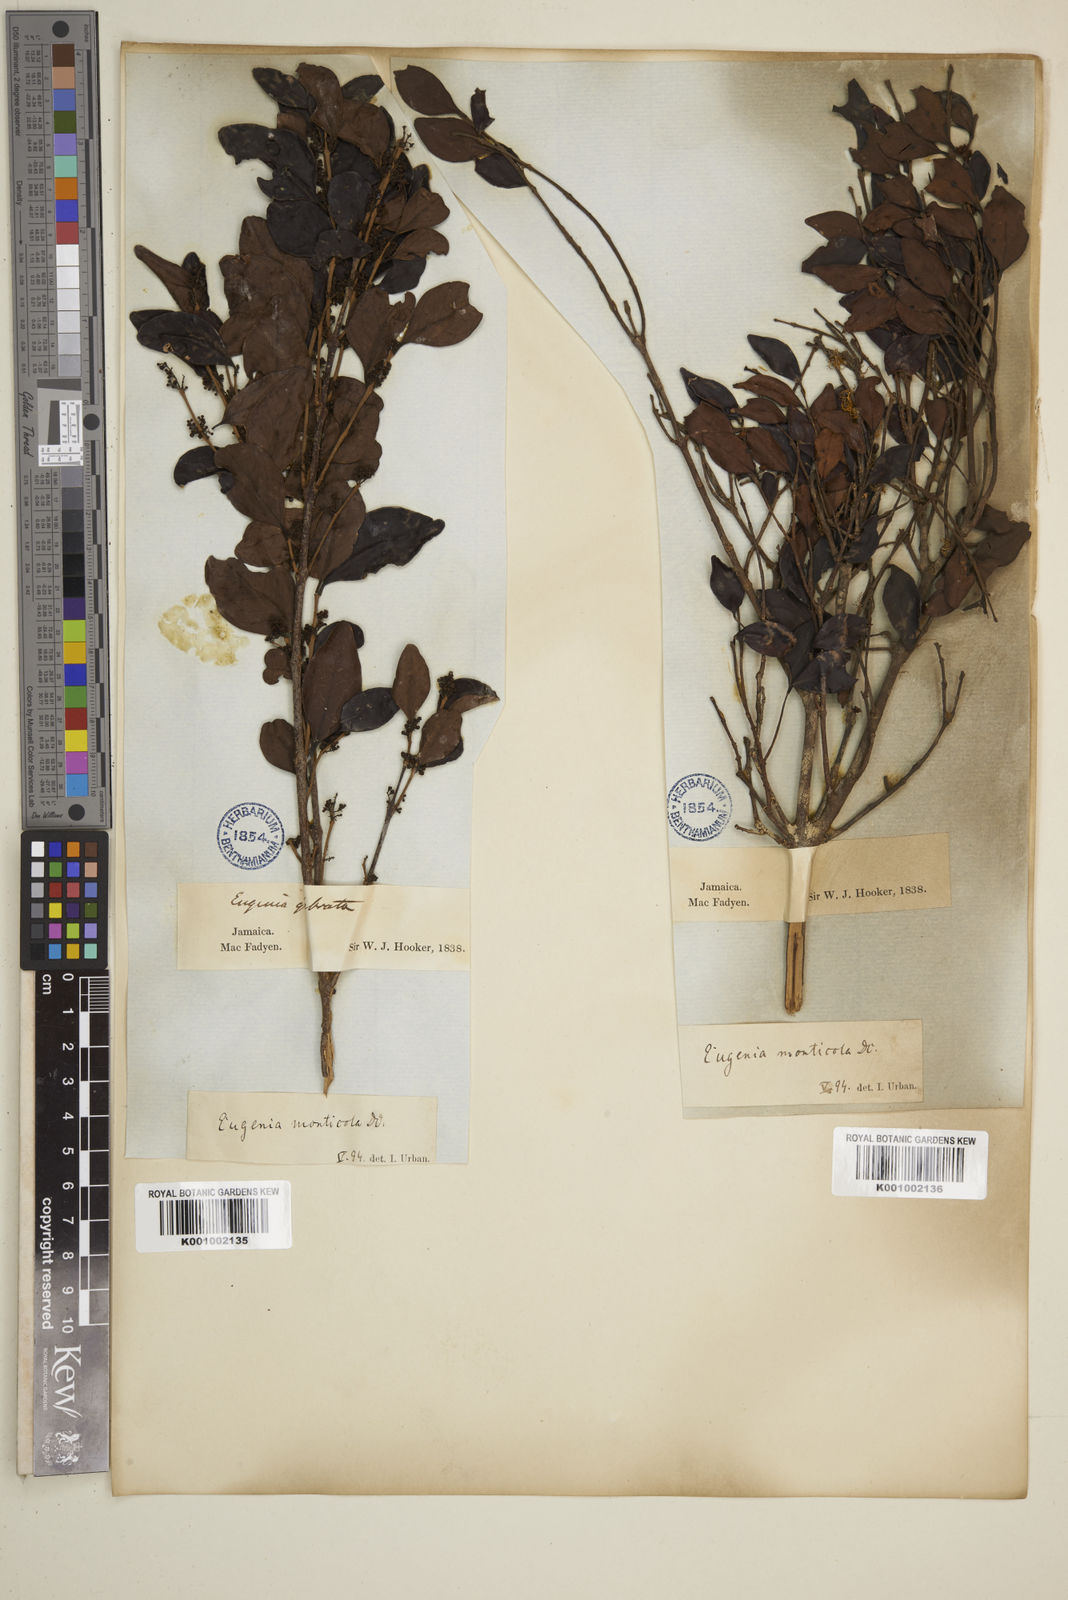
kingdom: Plantae
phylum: Tracheophyta
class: Magnoliopsida
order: Myrtales
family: Myrtaceae
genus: Eugenia
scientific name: Eugenia monticola
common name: Birds berry
